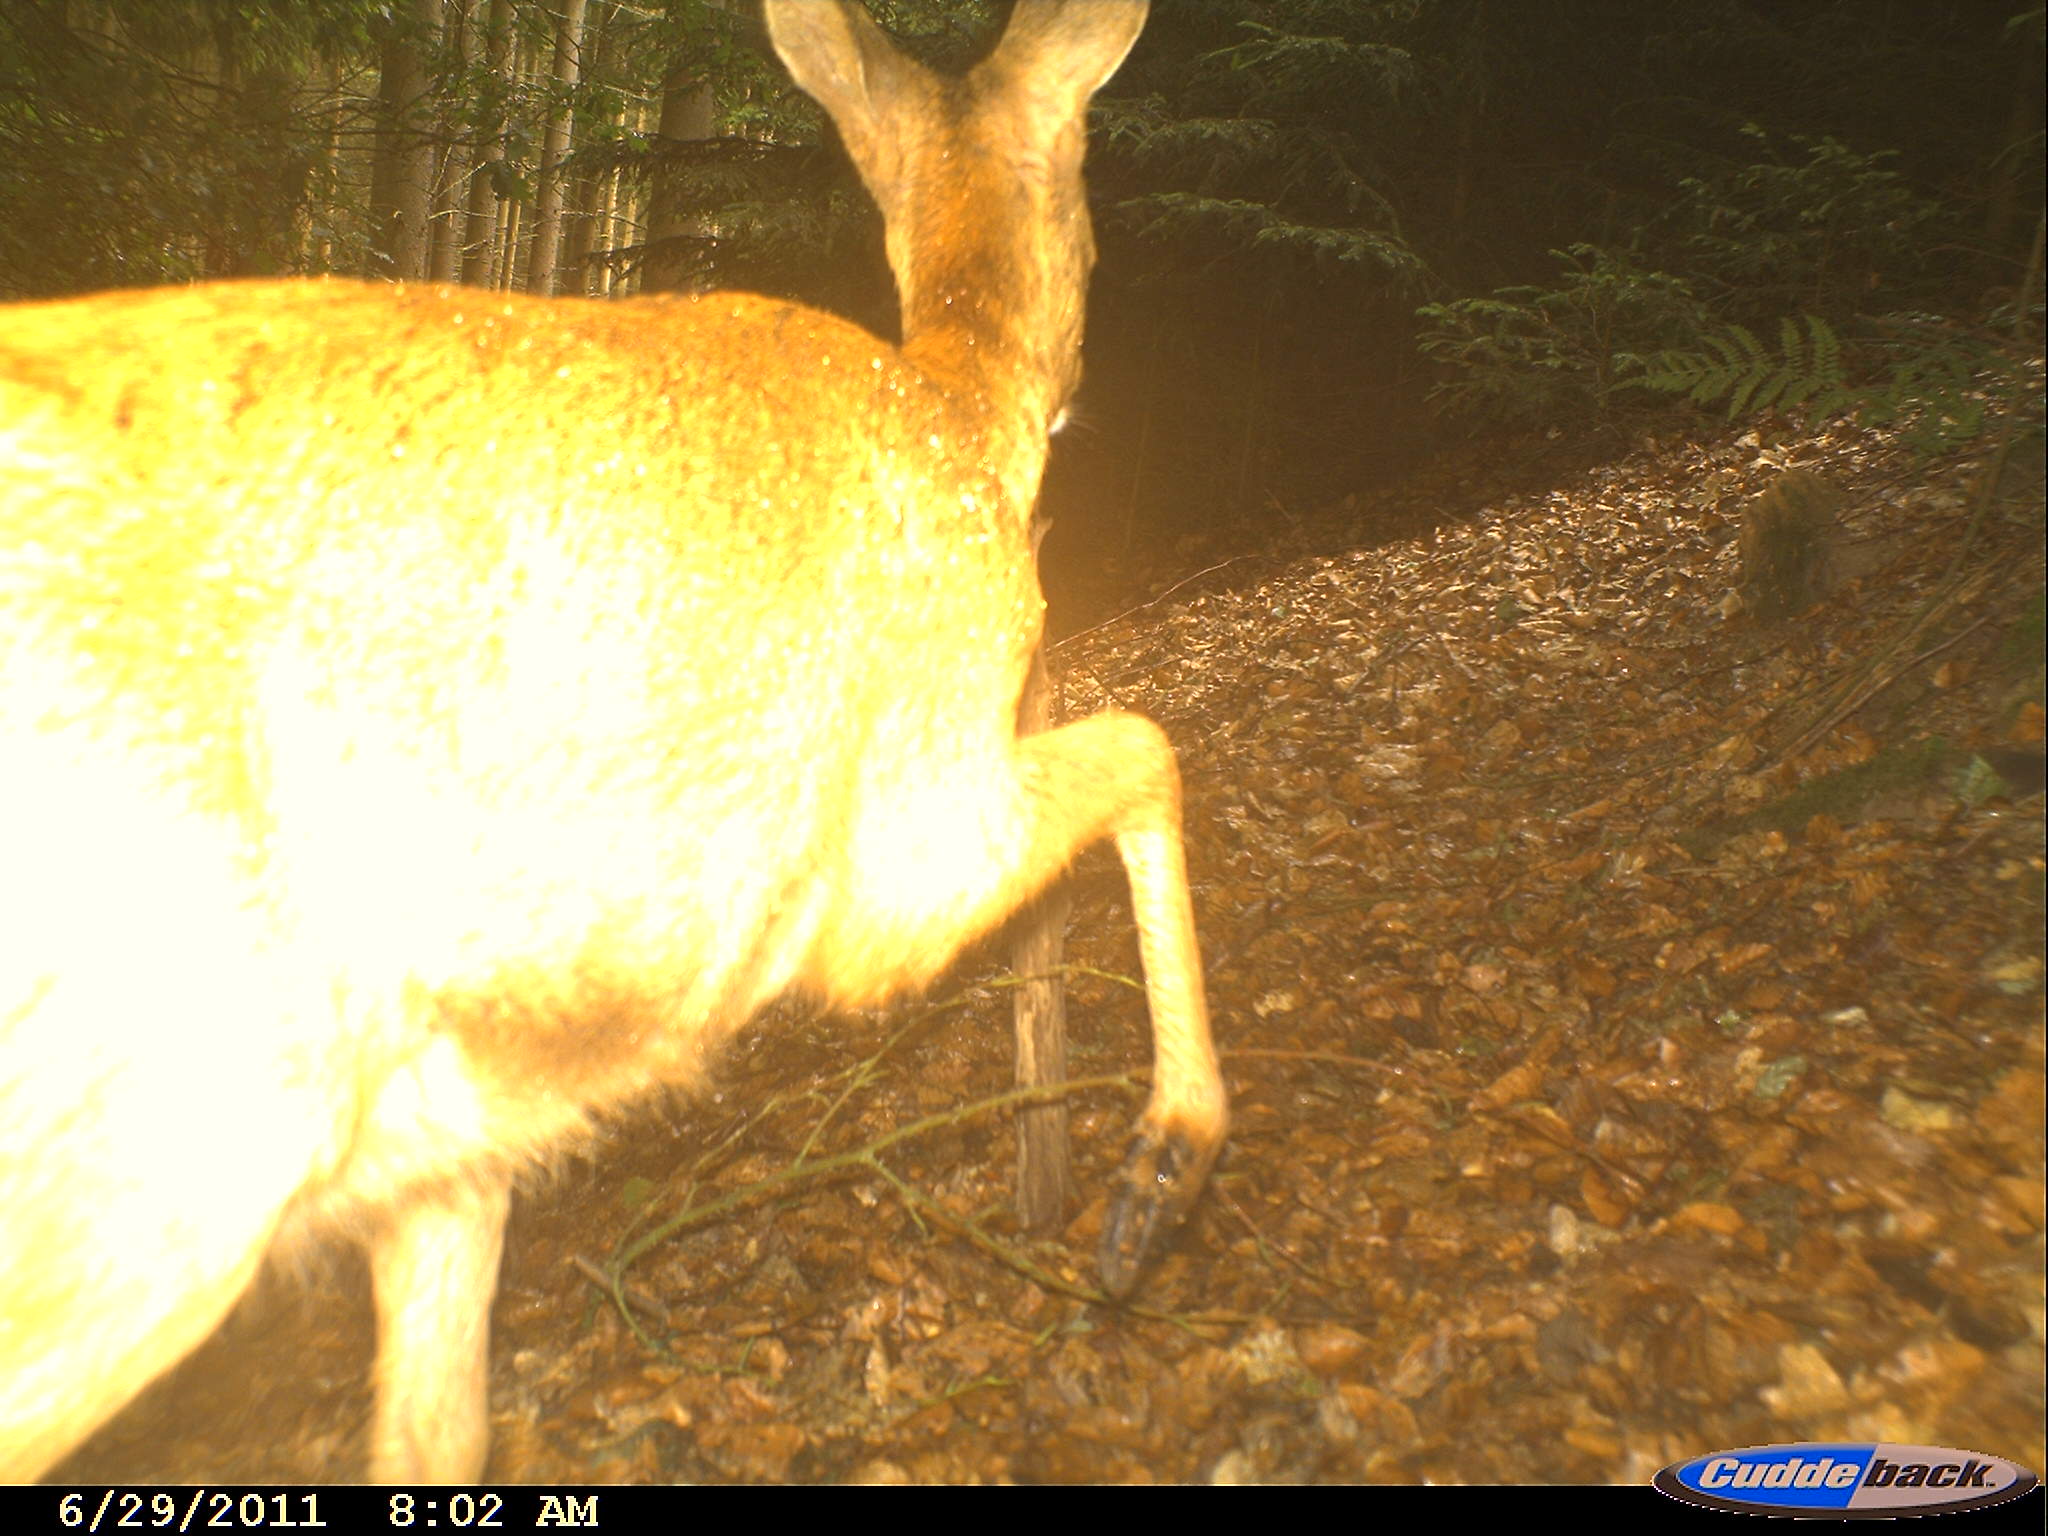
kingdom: Animalia
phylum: Chordata
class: Mammalia
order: Artiodactyla
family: Cervidae
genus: Capreolus
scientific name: Capreolus capreolus
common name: Western roe deer
